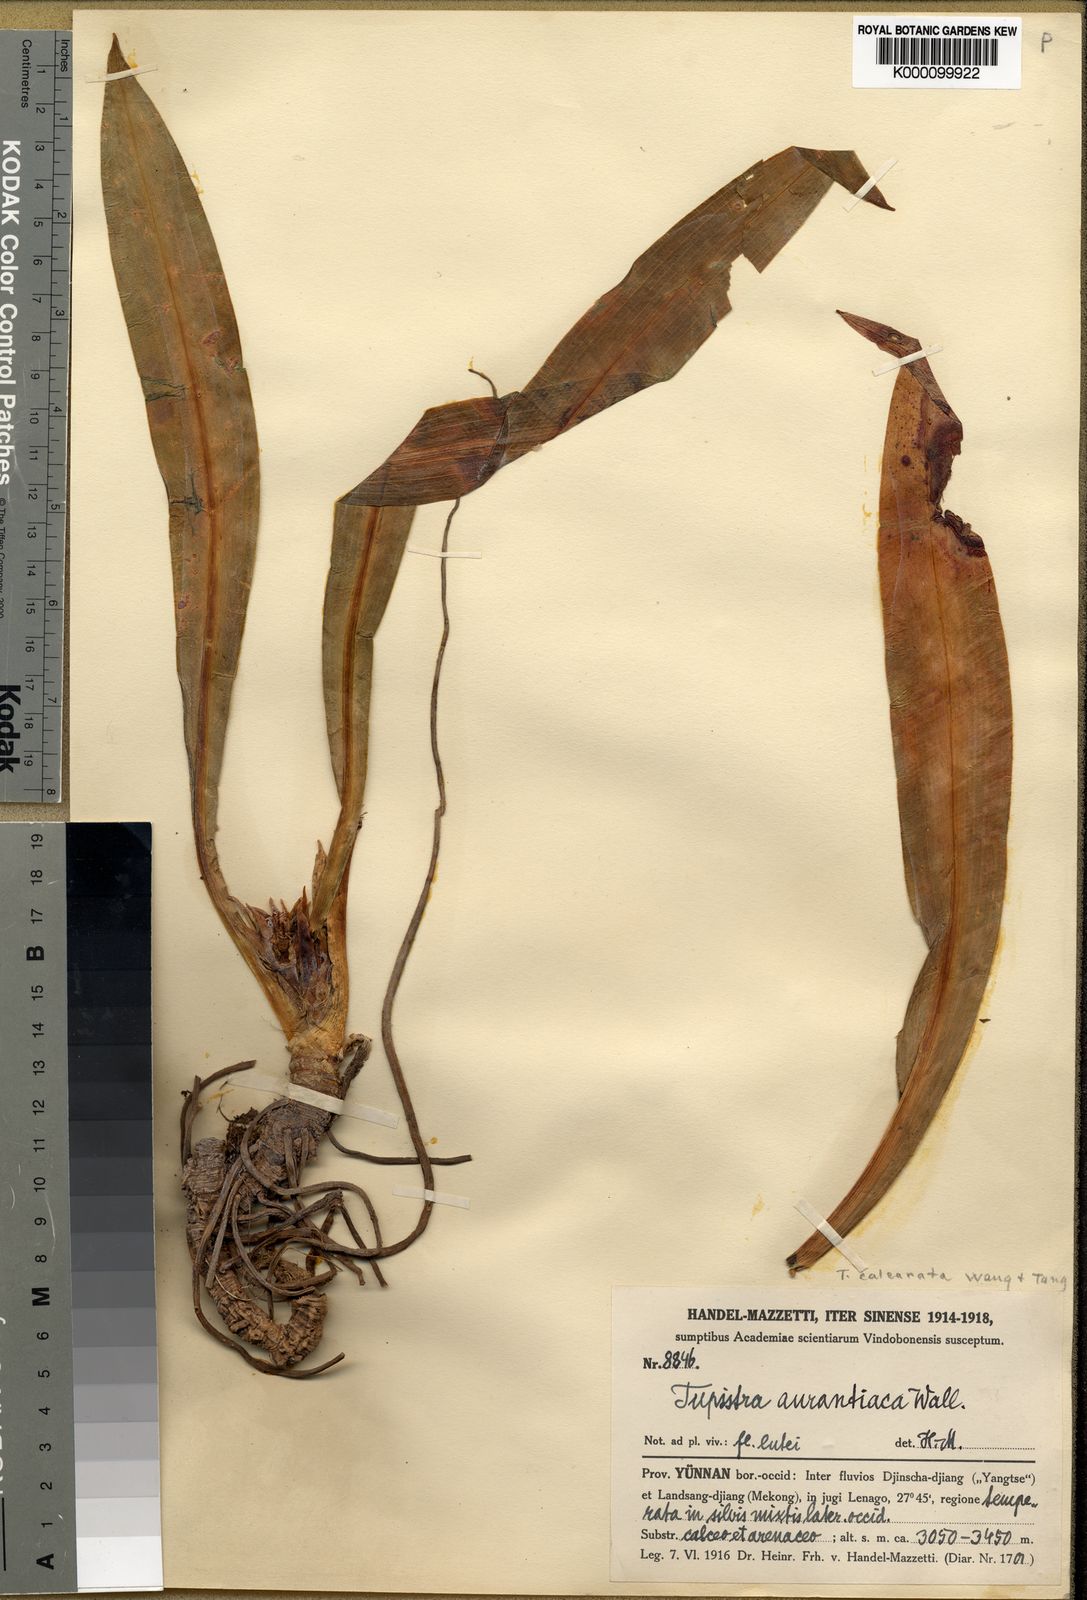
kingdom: Plantae
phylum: Tracheophyta
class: Liliopsida
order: Asparagales
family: Asparagaceae
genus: Tupistra
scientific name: Tupistra
